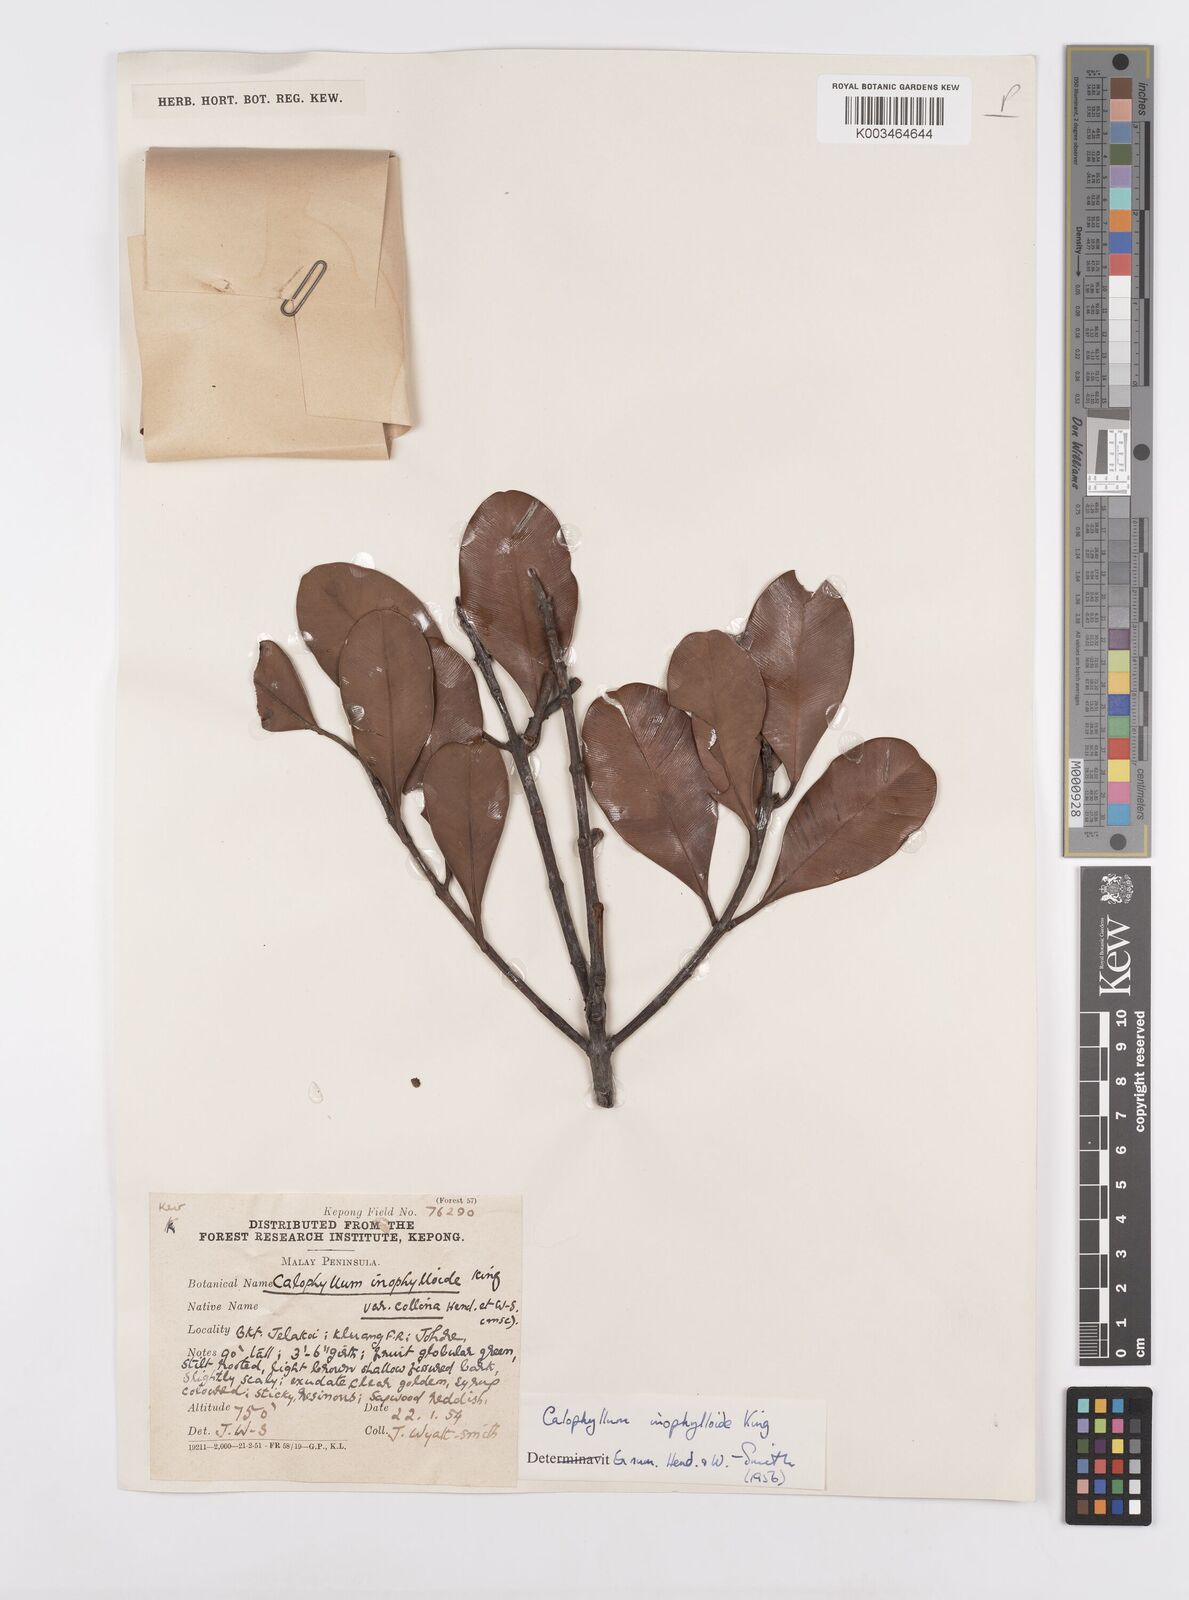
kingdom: Plantae
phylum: Tracheophyta
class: Magnoliopsida
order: Malpighiales
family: Calophyllaceae
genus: Calophyllum
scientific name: Calophyllum teysmannii
